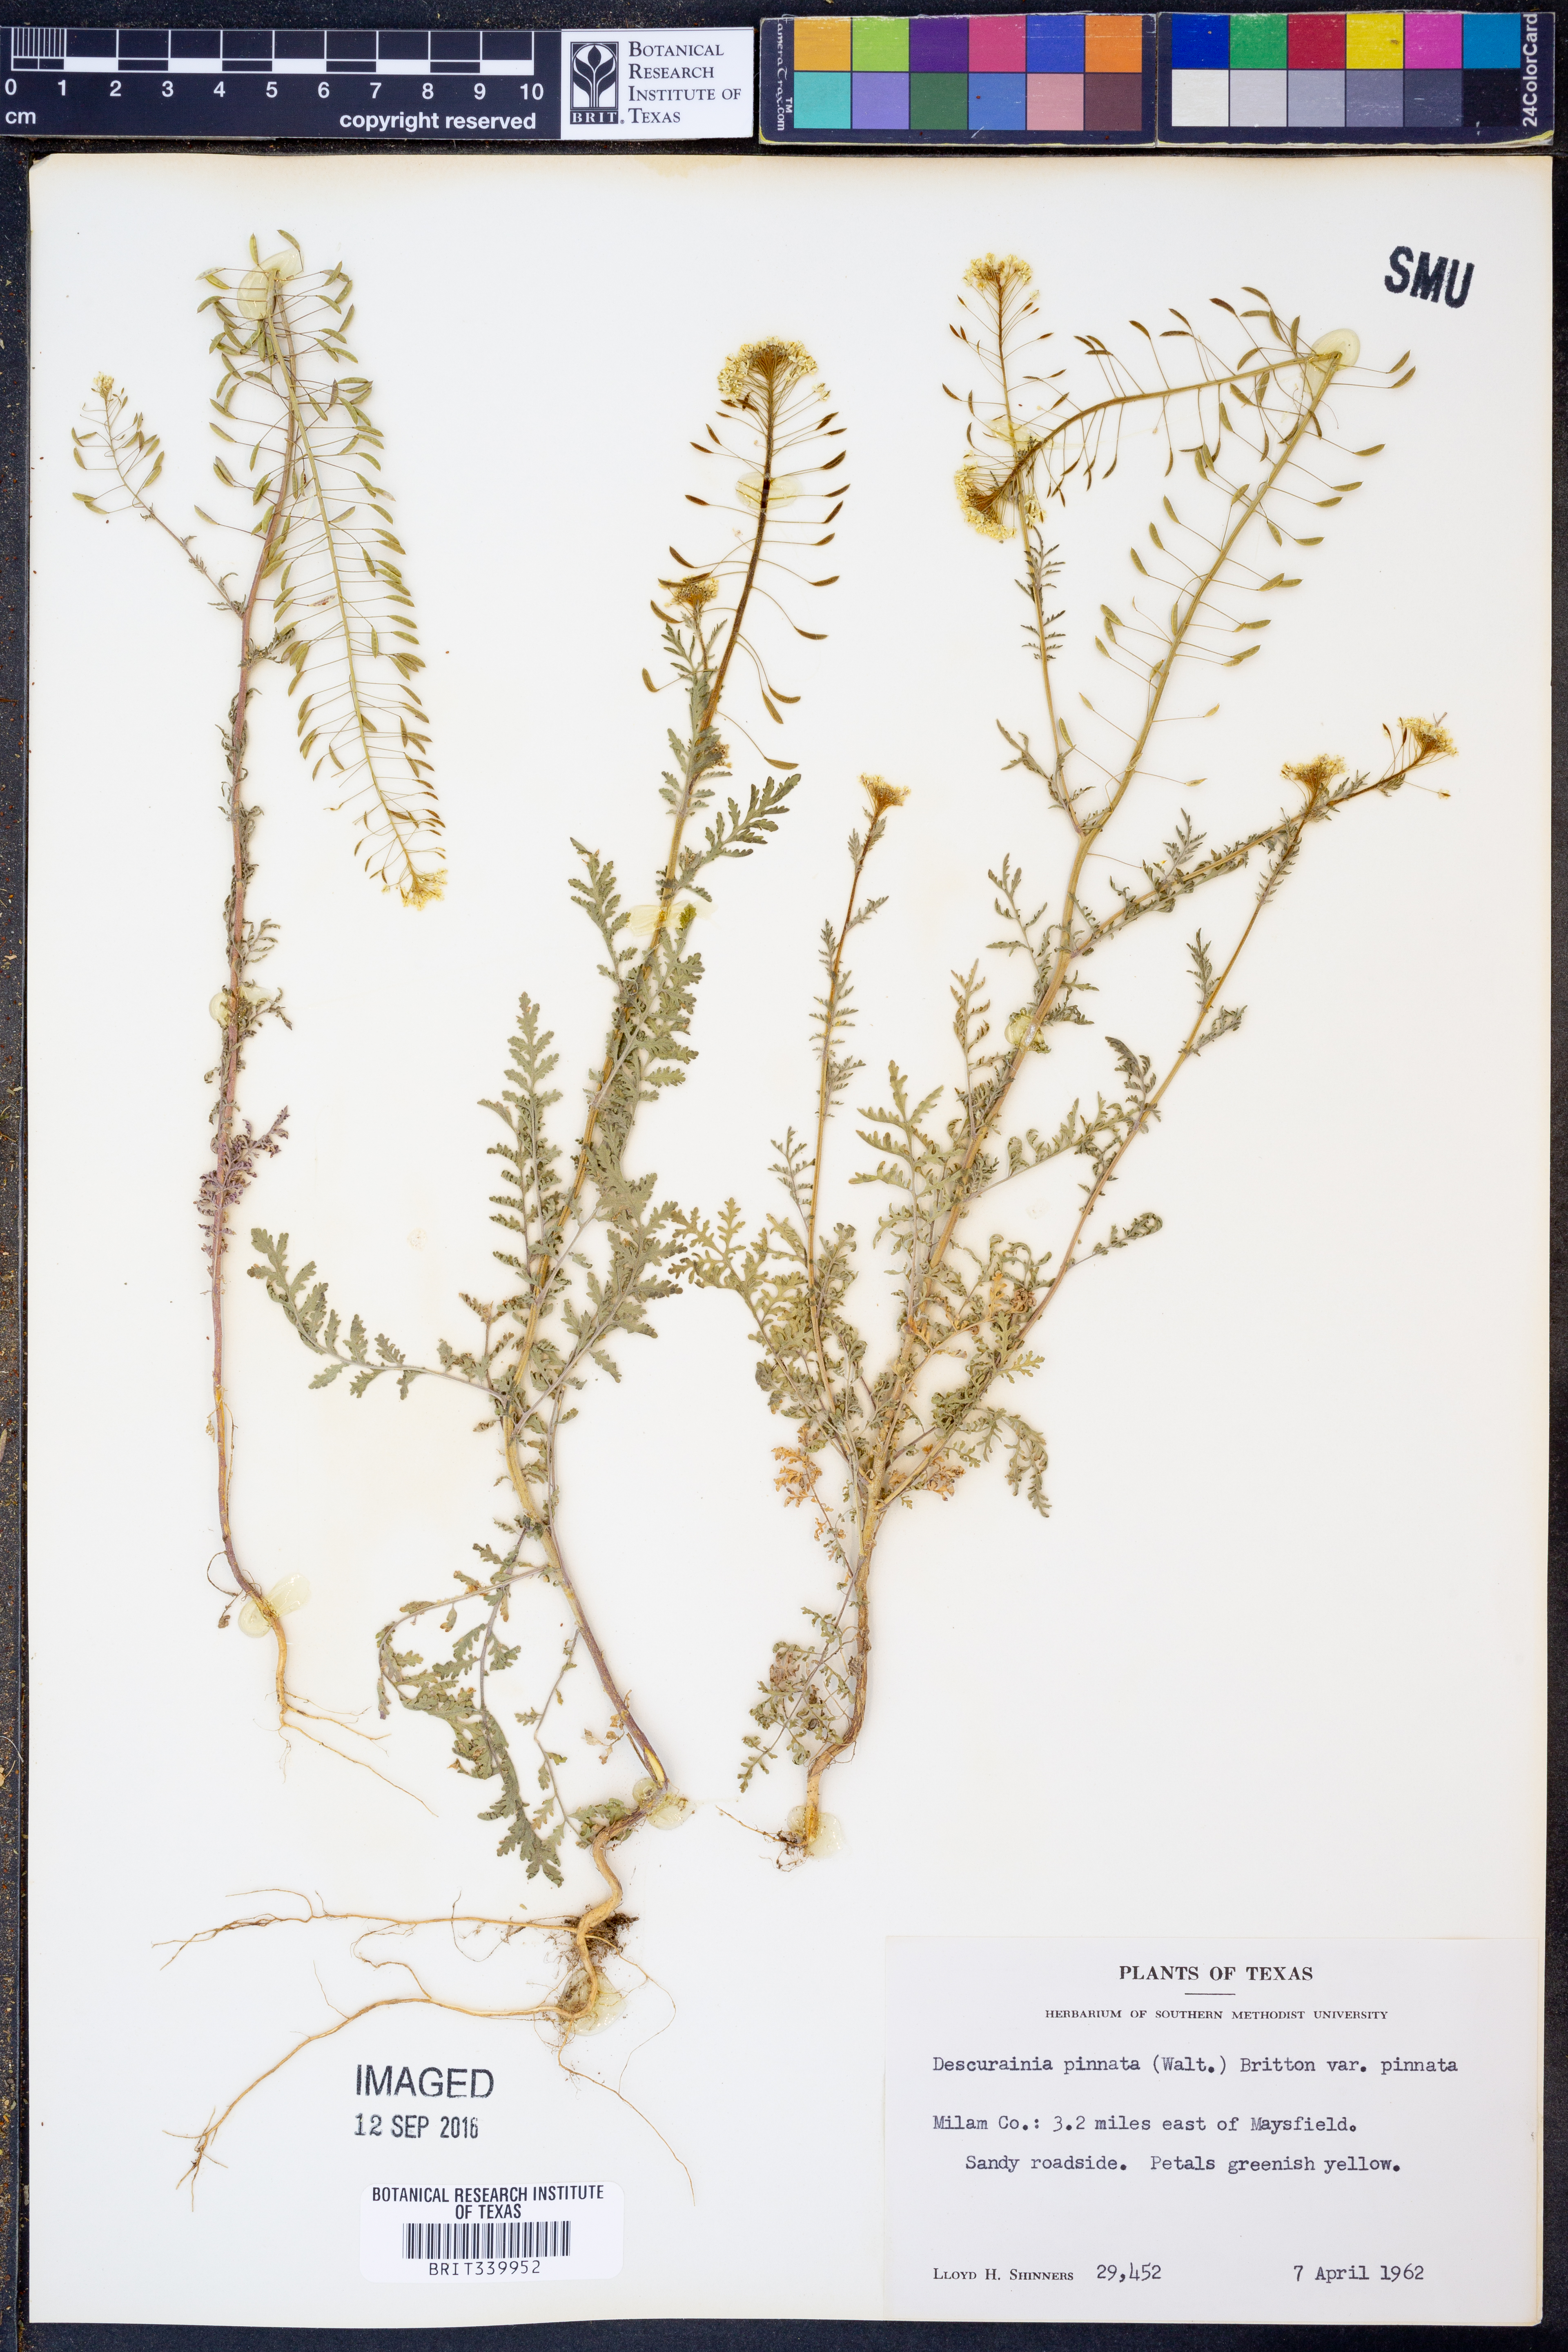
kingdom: Plantae
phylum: Tracheophyta
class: Magnoliopsida
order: Brassicales
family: Brassicaceae
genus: Descurainia
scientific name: Descurainia pinnata
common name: Western tansy mustard
